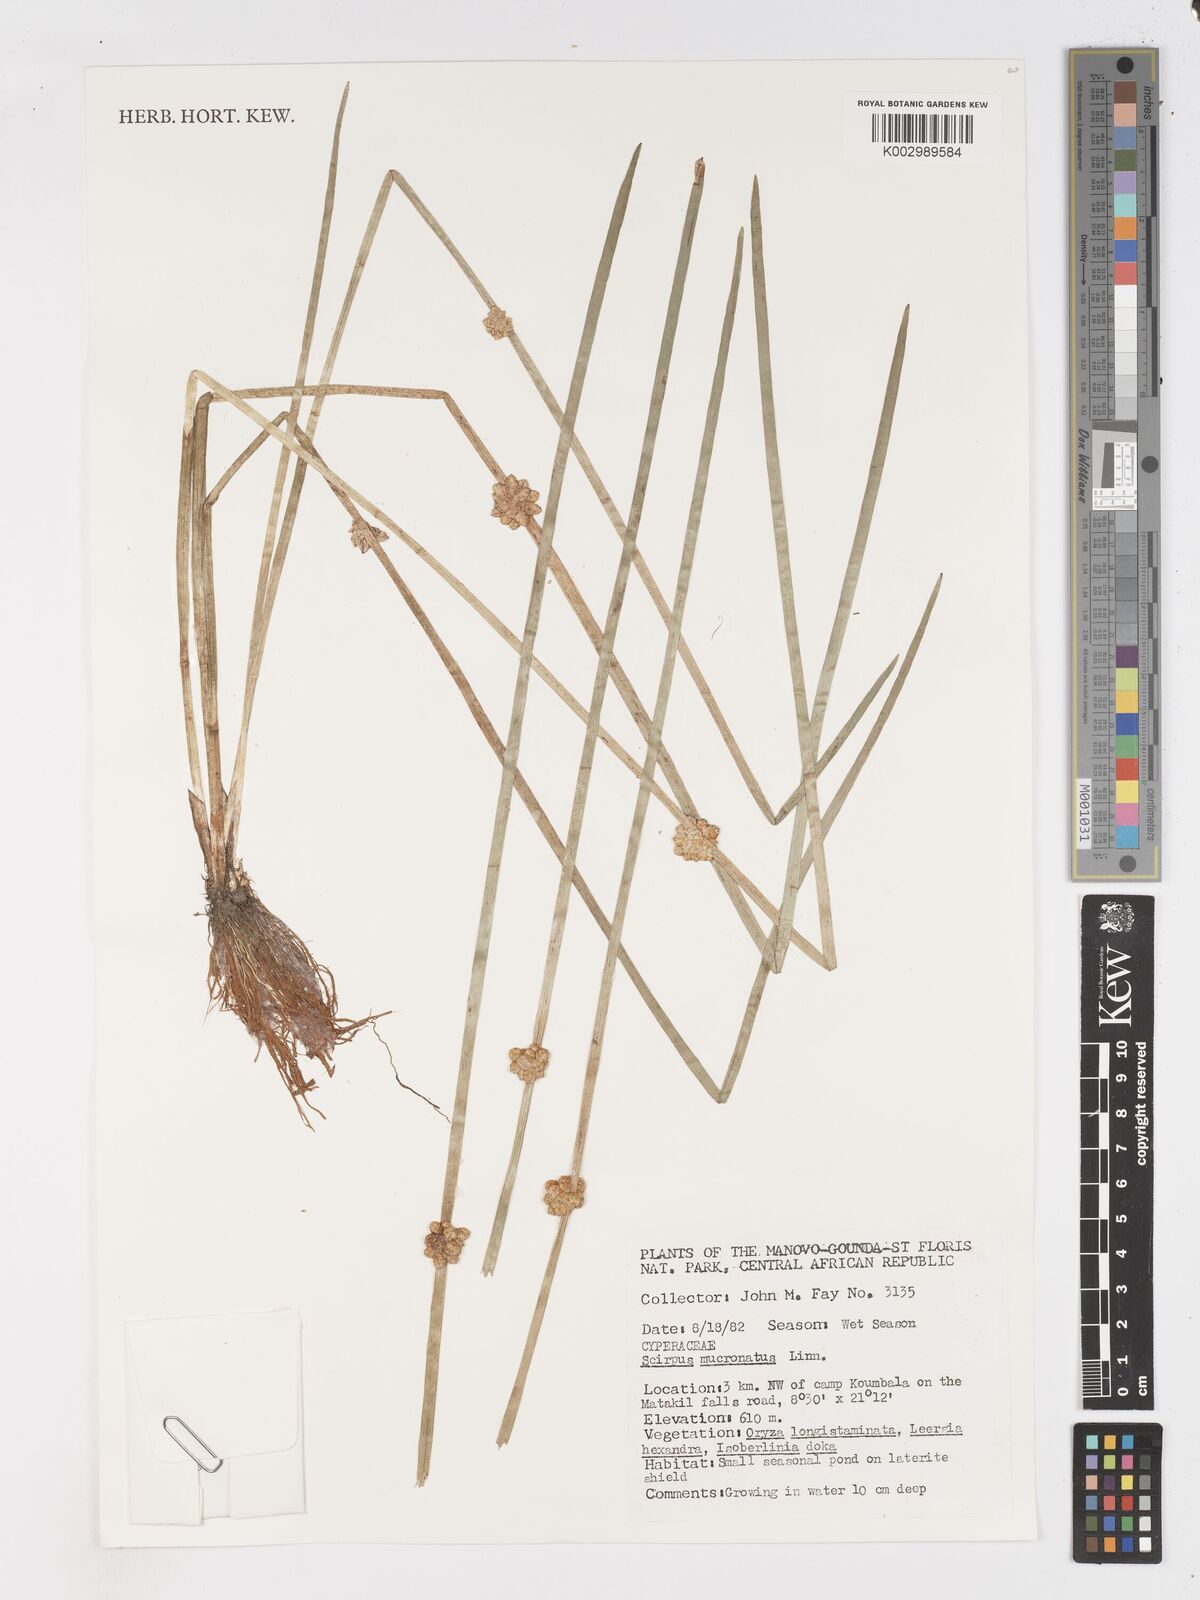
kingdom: Plantae
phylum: Tracheophyta
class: Liliopsida
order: Poales
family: Cyperaceae
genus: Schoenoplectiella
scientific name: Schoenoplectiella mucronata
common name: Bog bulrush
